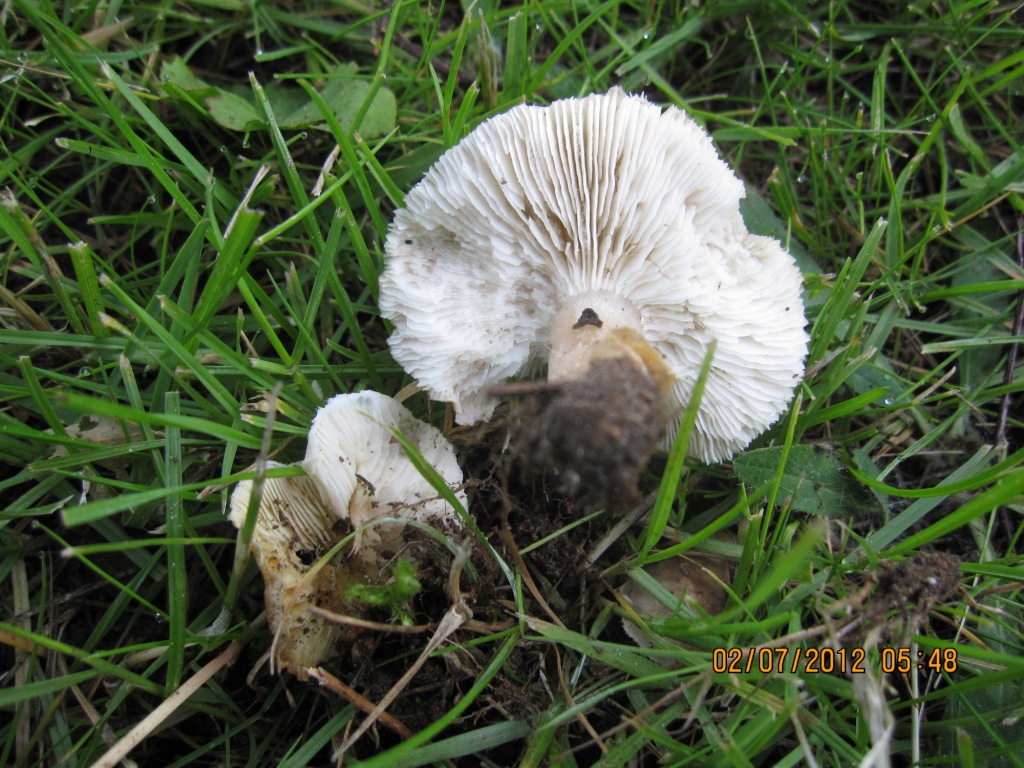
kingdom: Fungi
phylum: Basidiomycota
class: Agaricomycetes
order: Agaricales
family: Tricholomataceae
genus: Tricholoma
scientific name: Tricholoma scalpturatum
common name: gulplettet ridderhat
